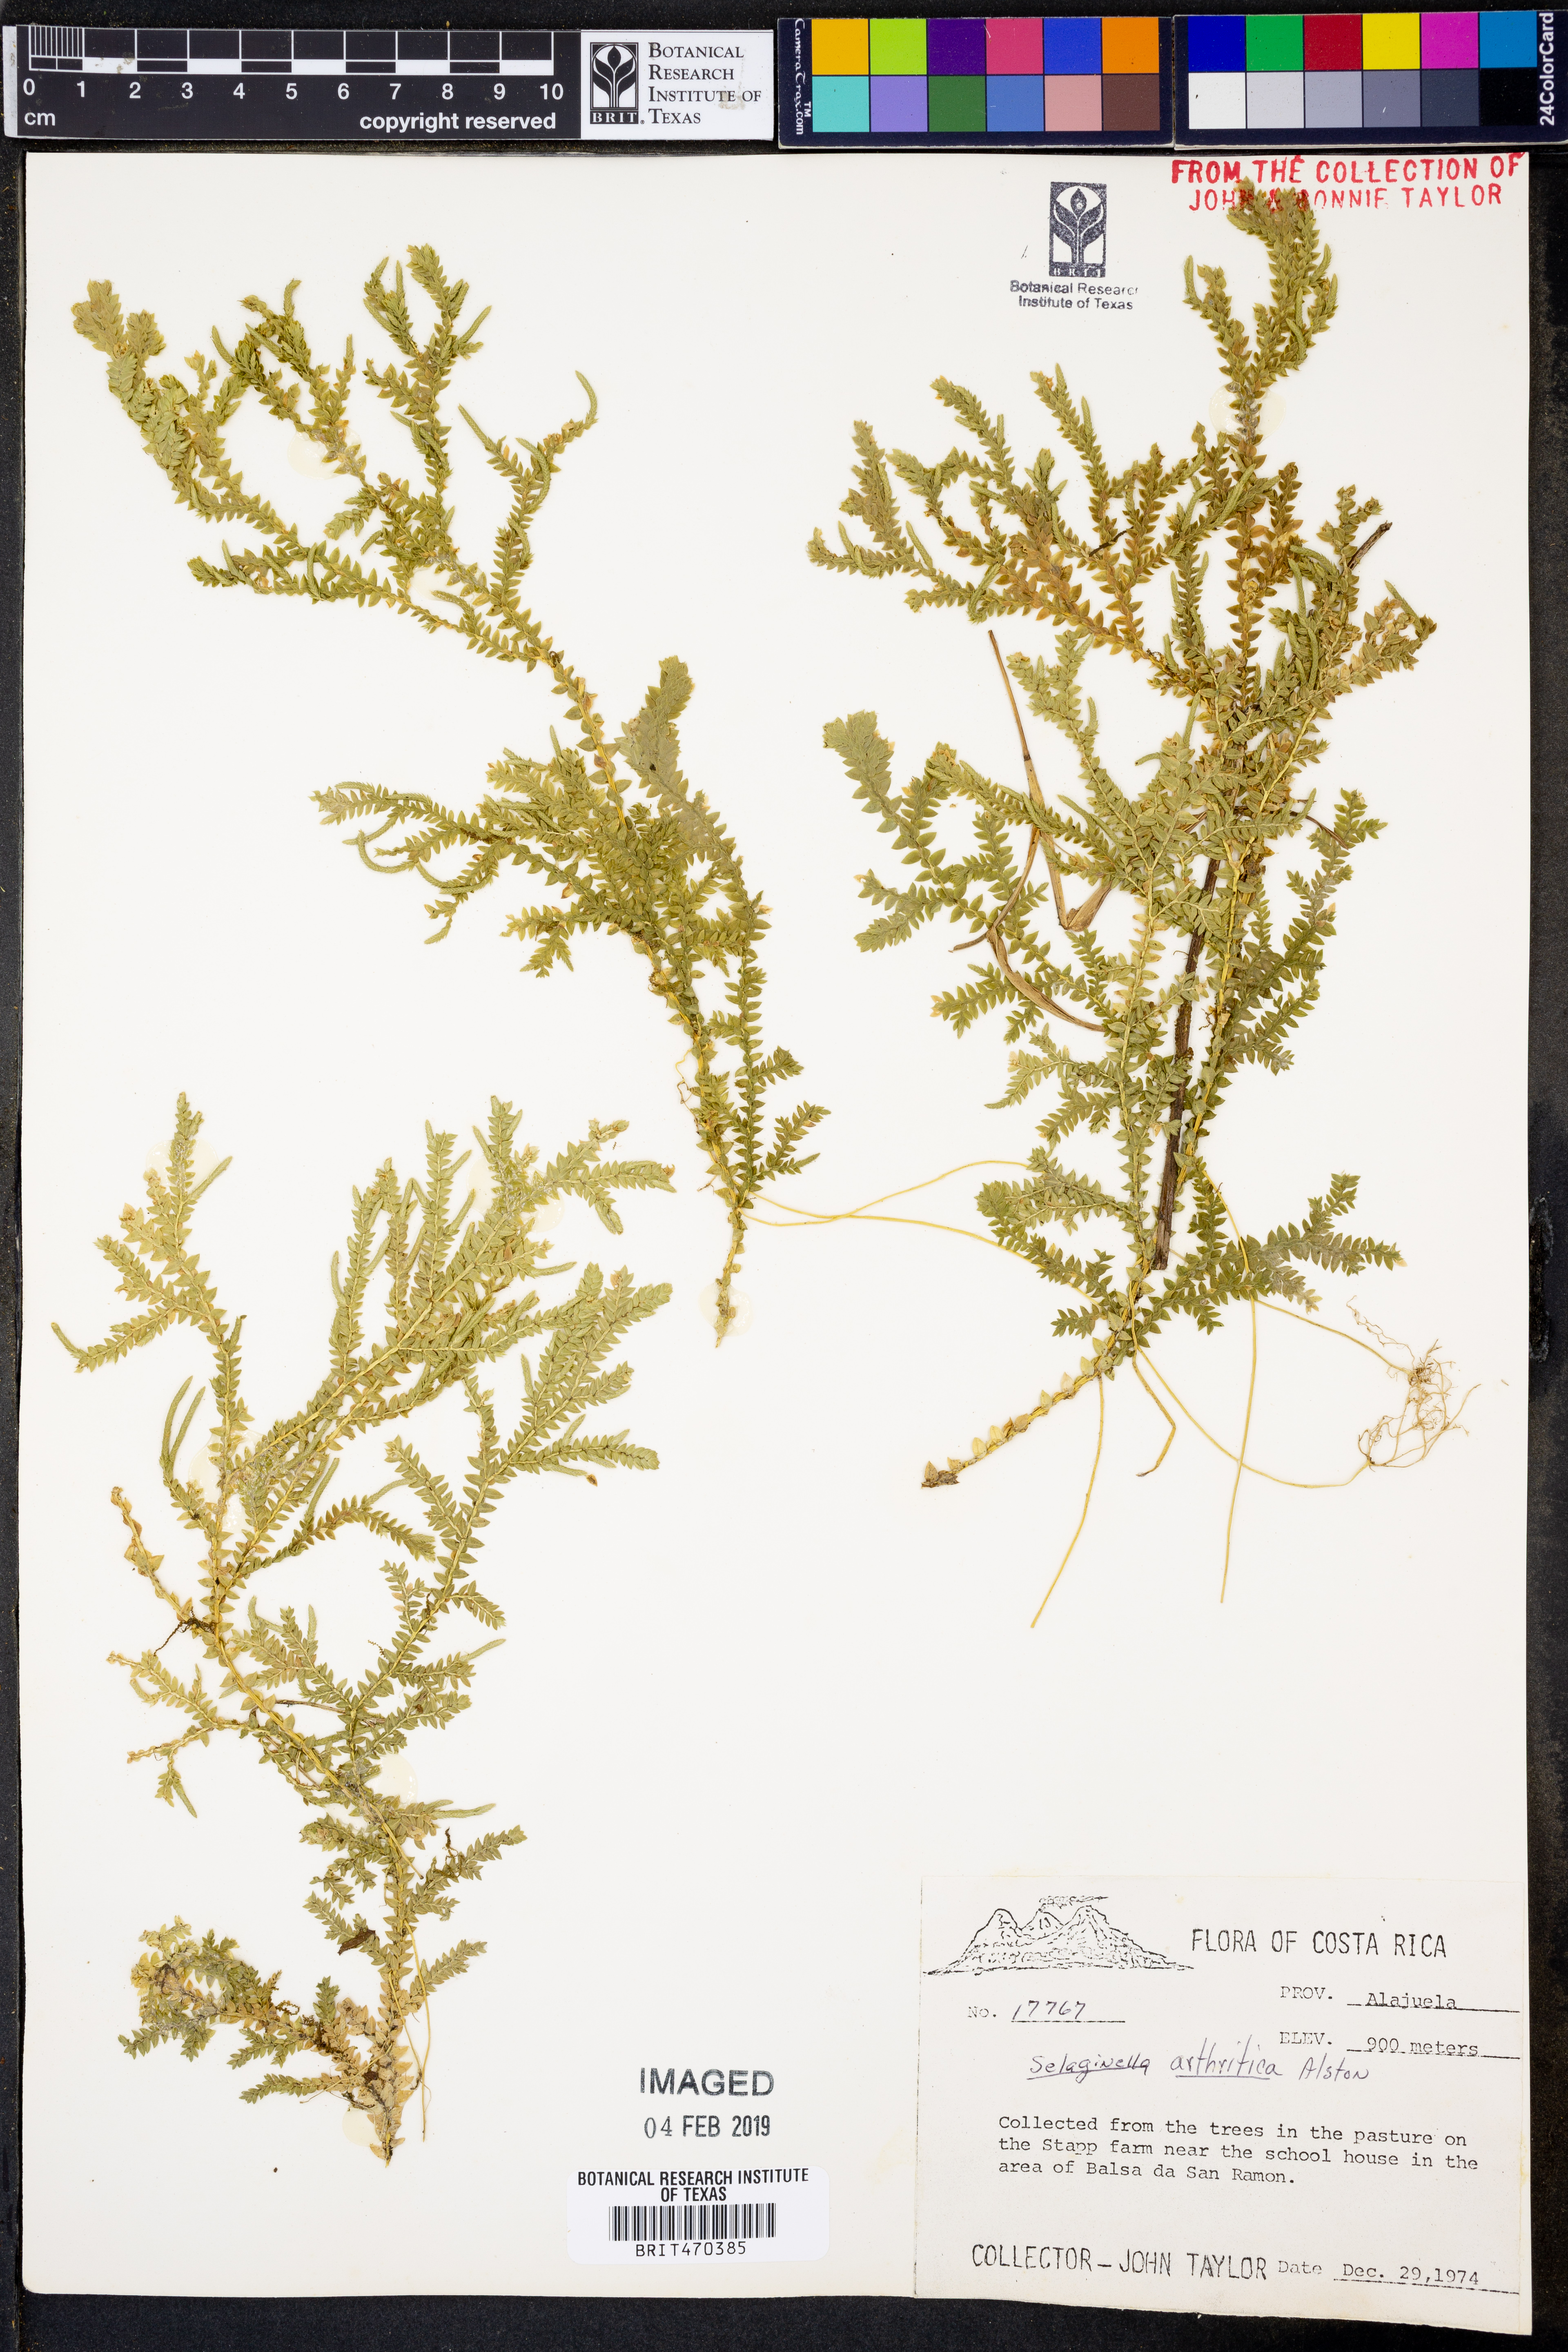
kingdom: Plantae
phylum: Tracheophyta
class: Lycopodiopsida
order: Selaginellales
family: Selaginellaceae
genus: Selaginella
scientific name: Selaginella arthritica
